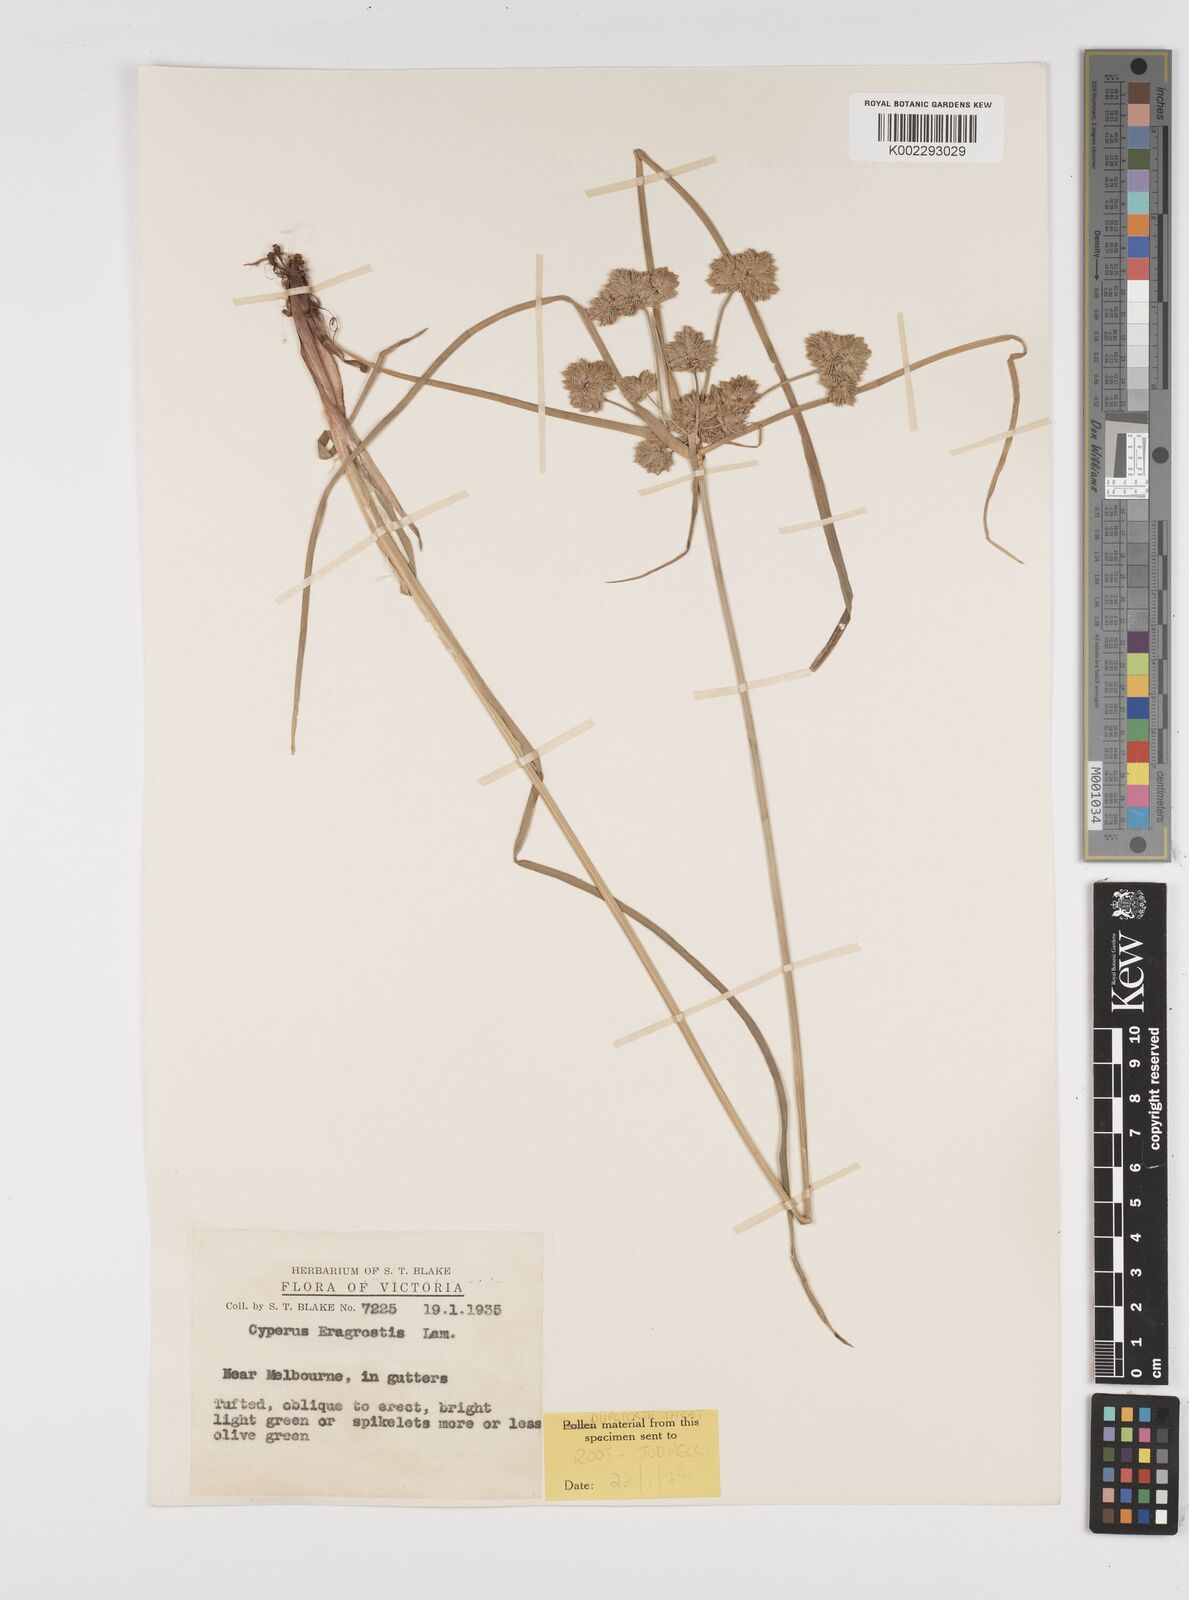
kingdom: Plantae
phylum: Tracheophyta
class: Liliopsida
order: Poales
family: Cyperaceae
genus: Cyperus
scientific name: Cyperus eragrostis
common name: Tall flatsedge
